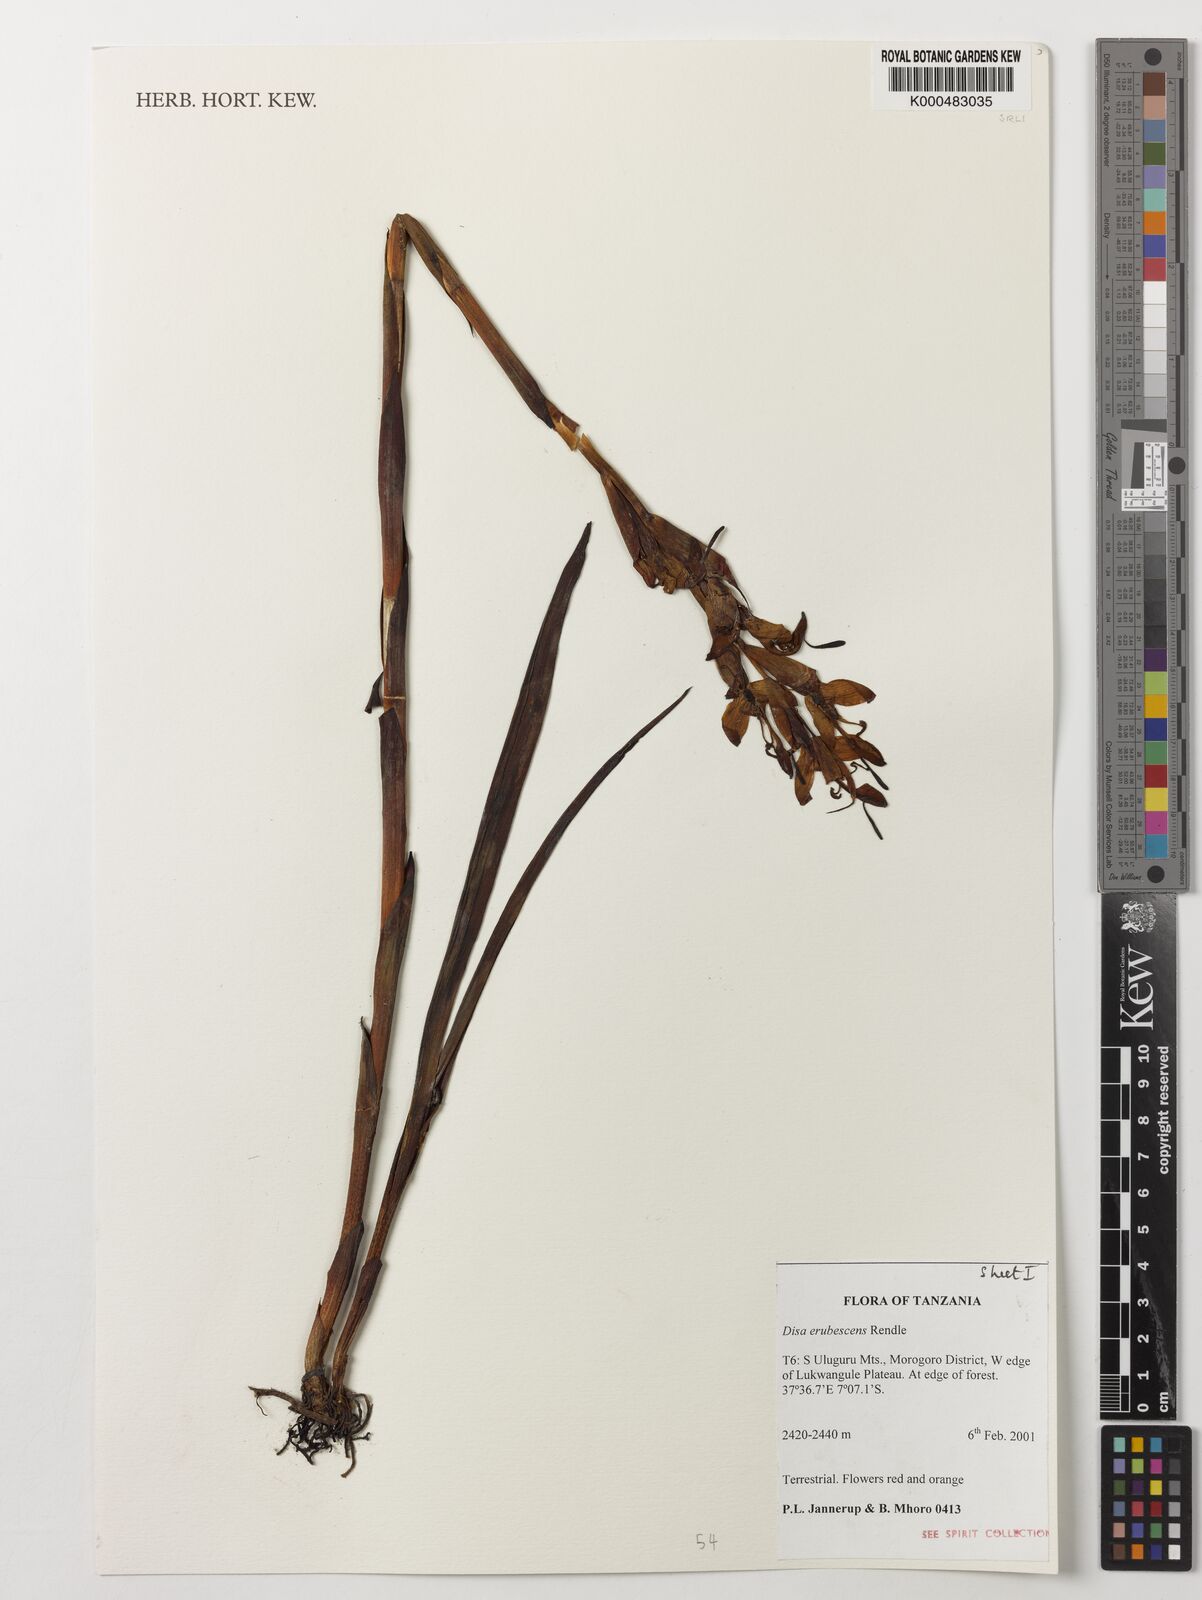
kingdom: Plantae
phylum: Tracheophyta
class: Liliopsida
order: Asparagales
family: Orchidaceae
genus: Disa
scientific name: Disa erubescens
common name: The rose disa
